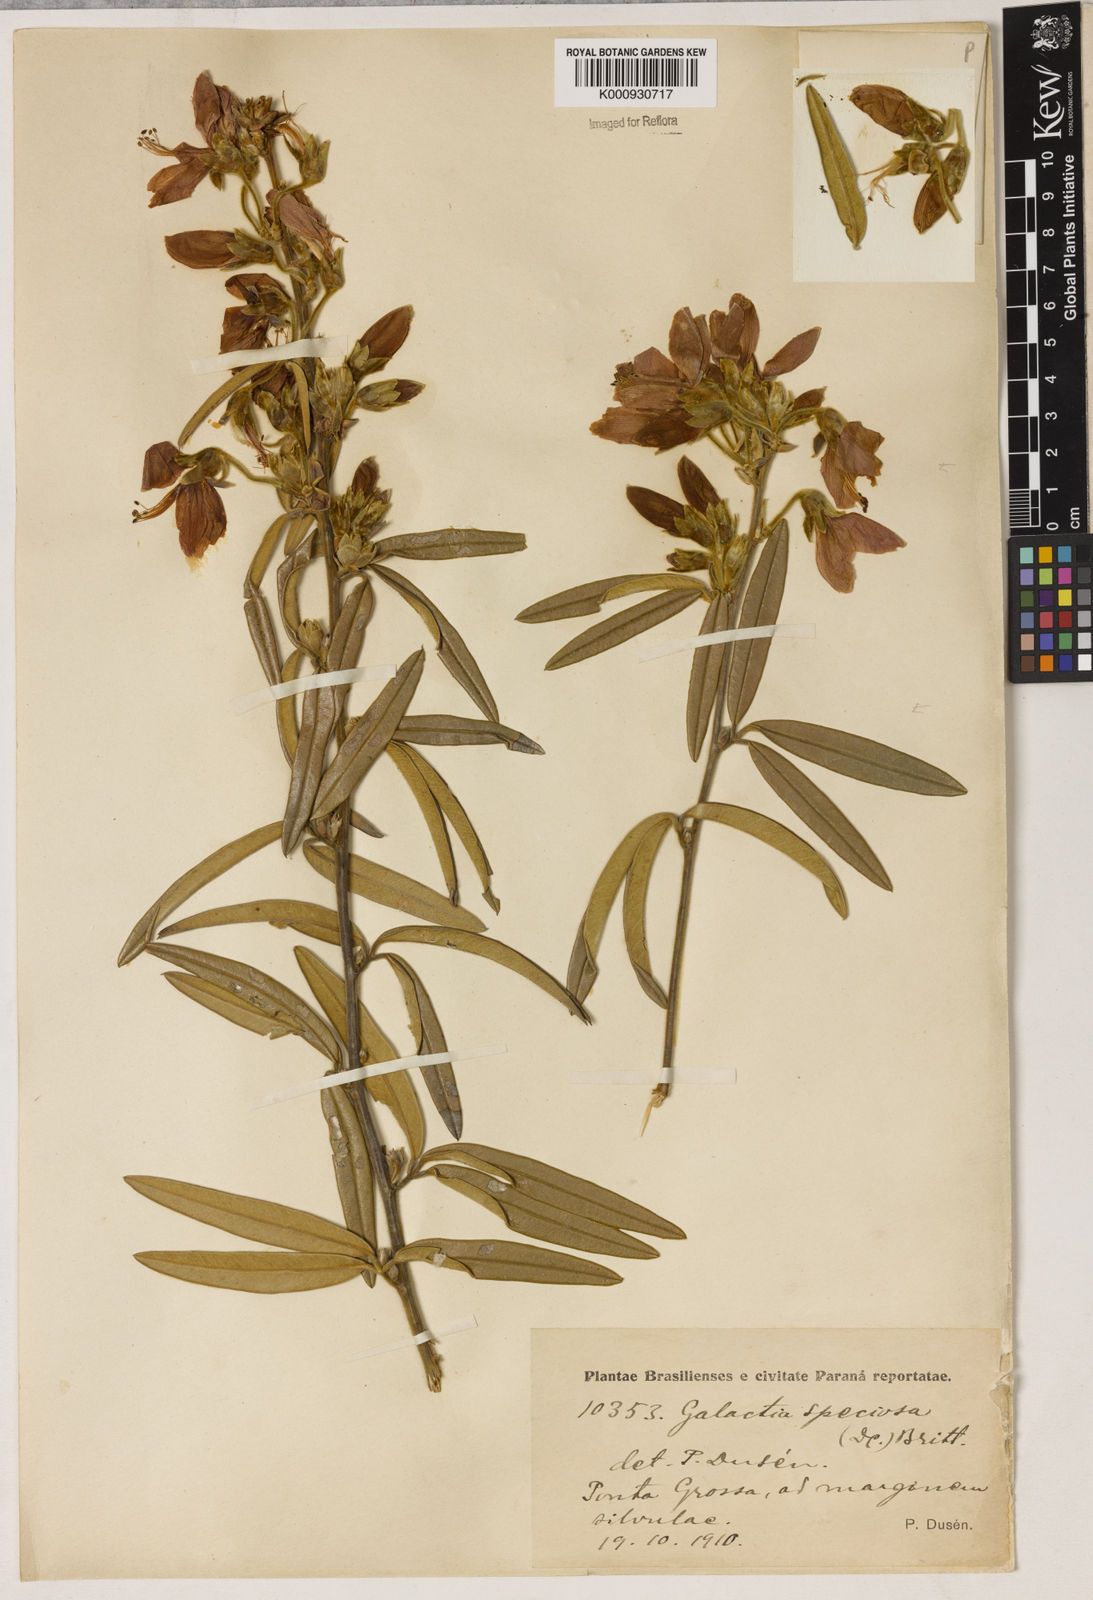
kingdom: Plantae
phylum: Tracheophyta
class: Magnoliopsida
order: Lamiales
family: Lamiaceae
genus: Coleus
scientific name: Coleus barbatus
